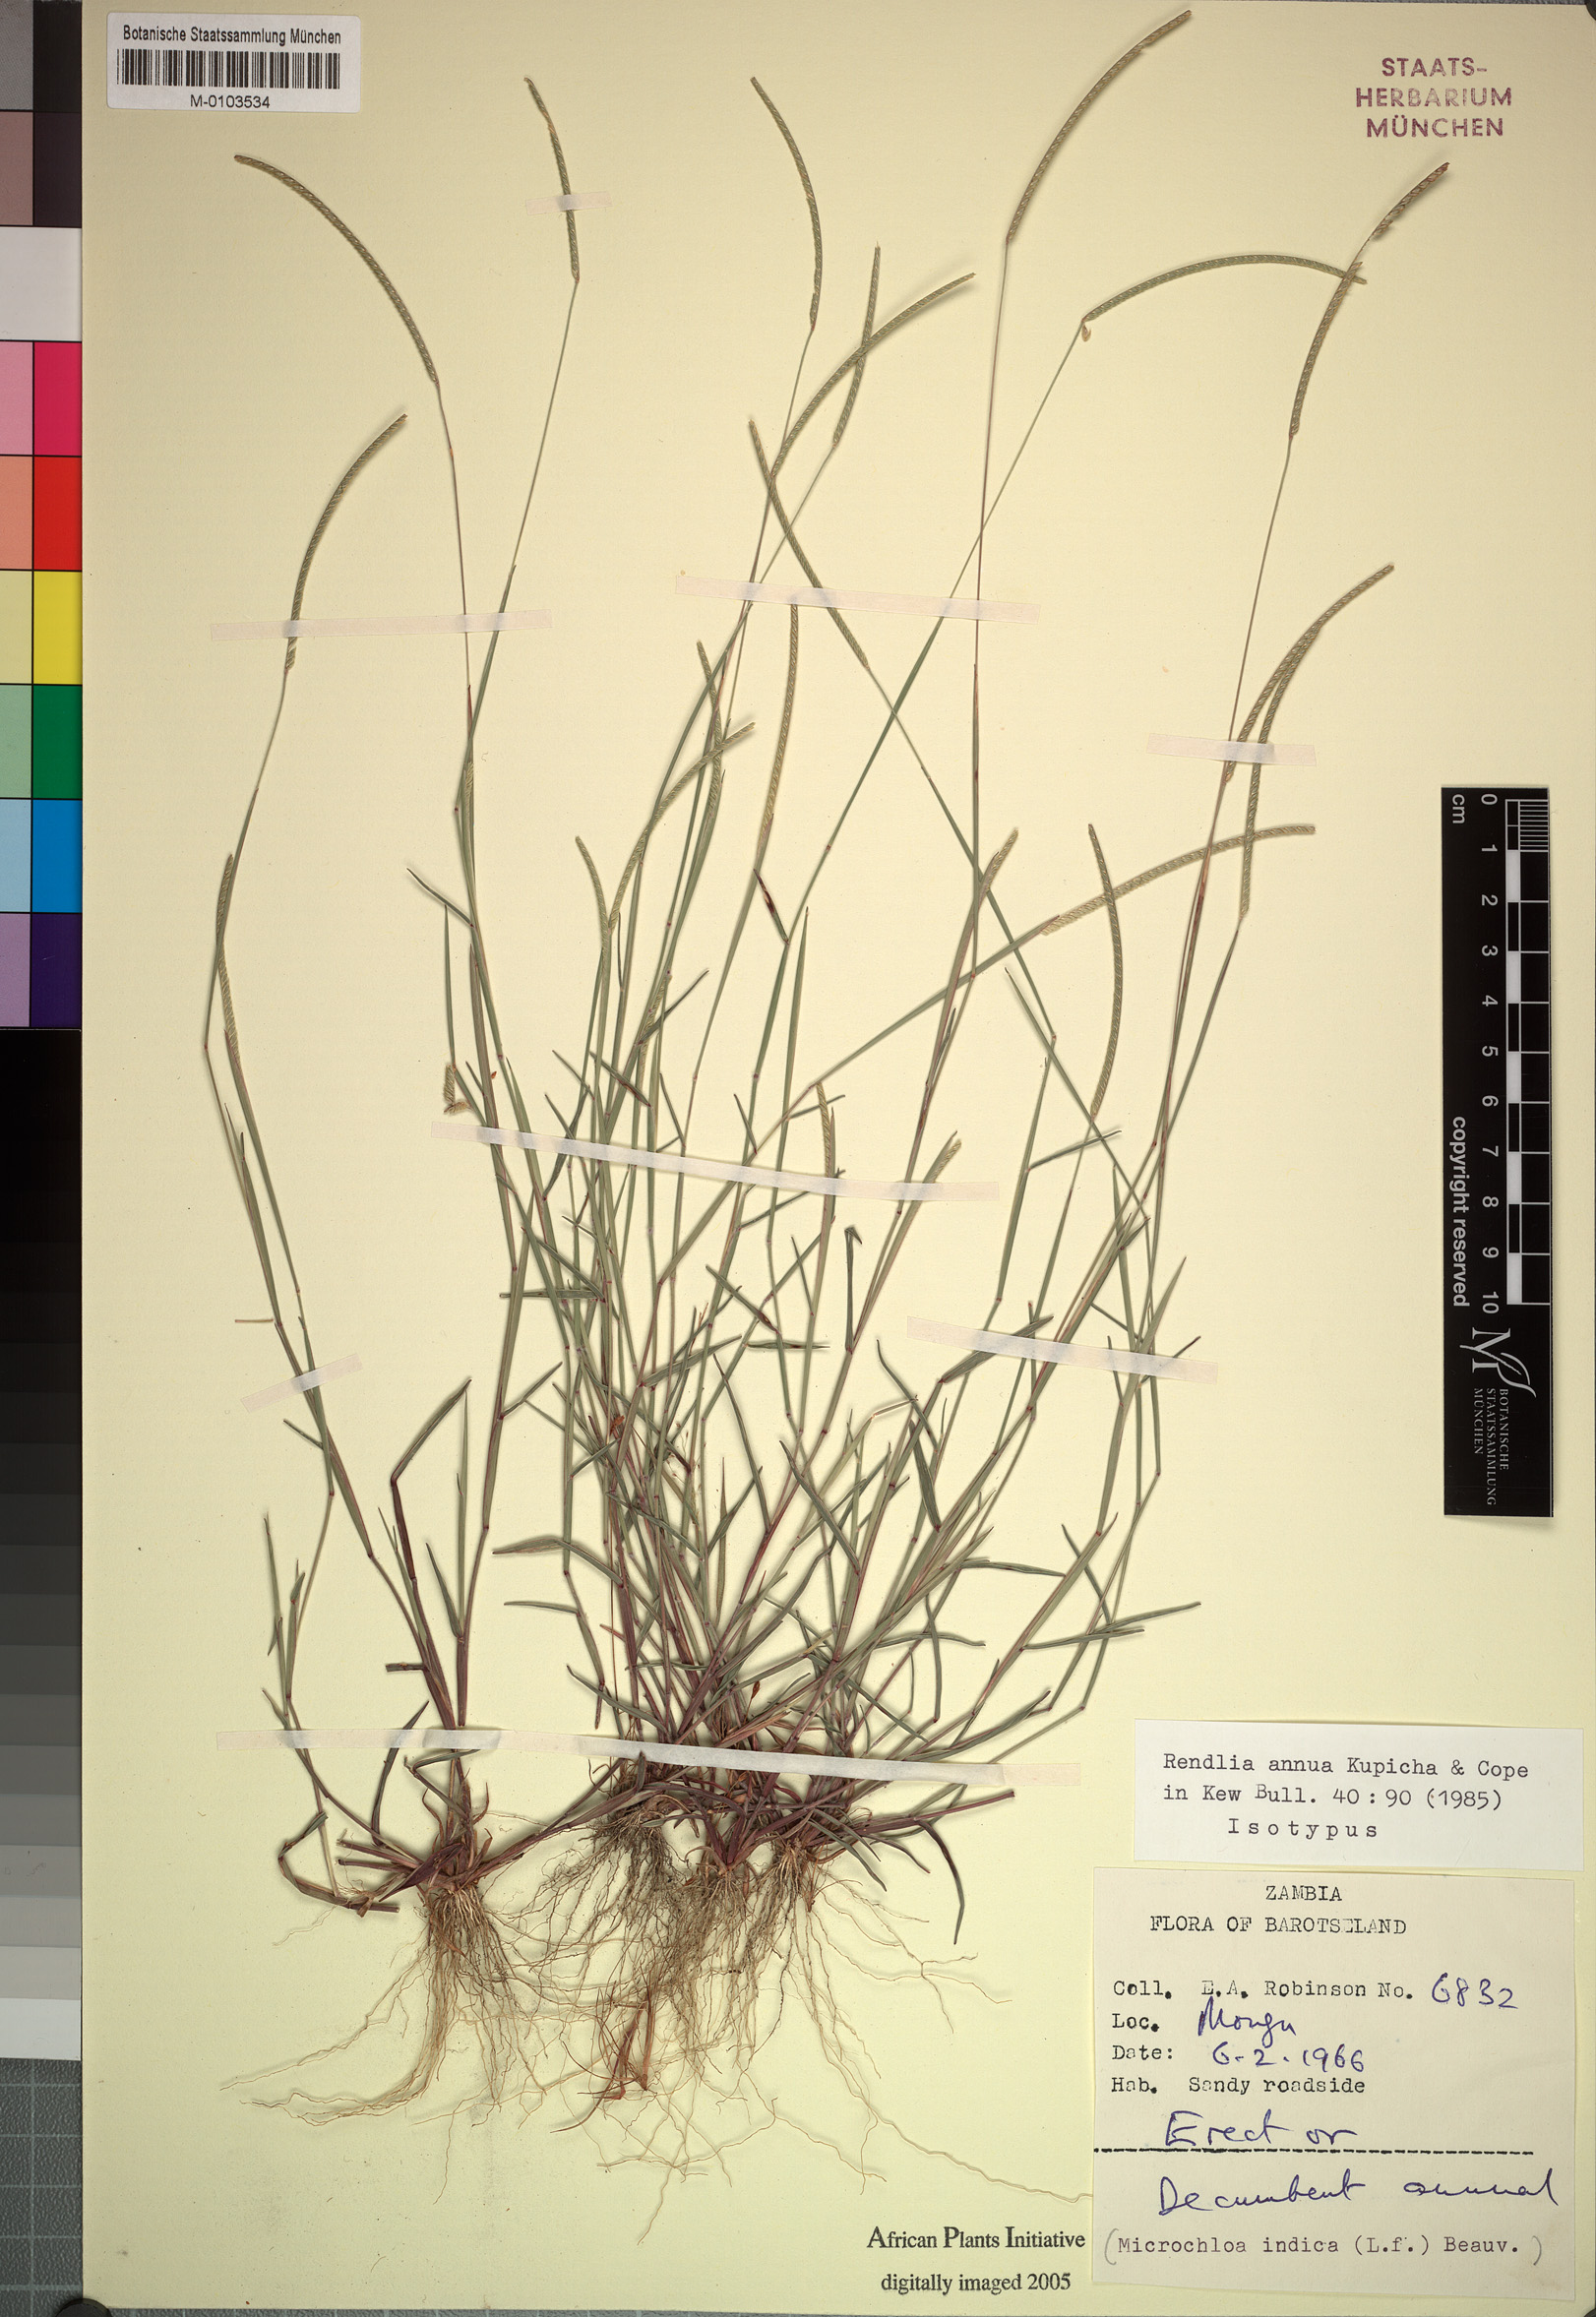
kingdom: Plantae
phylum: Tracheophyta
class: Liliopsida
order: Poales
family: Poaceae
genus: Microchloa
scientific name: Microchloa annua
